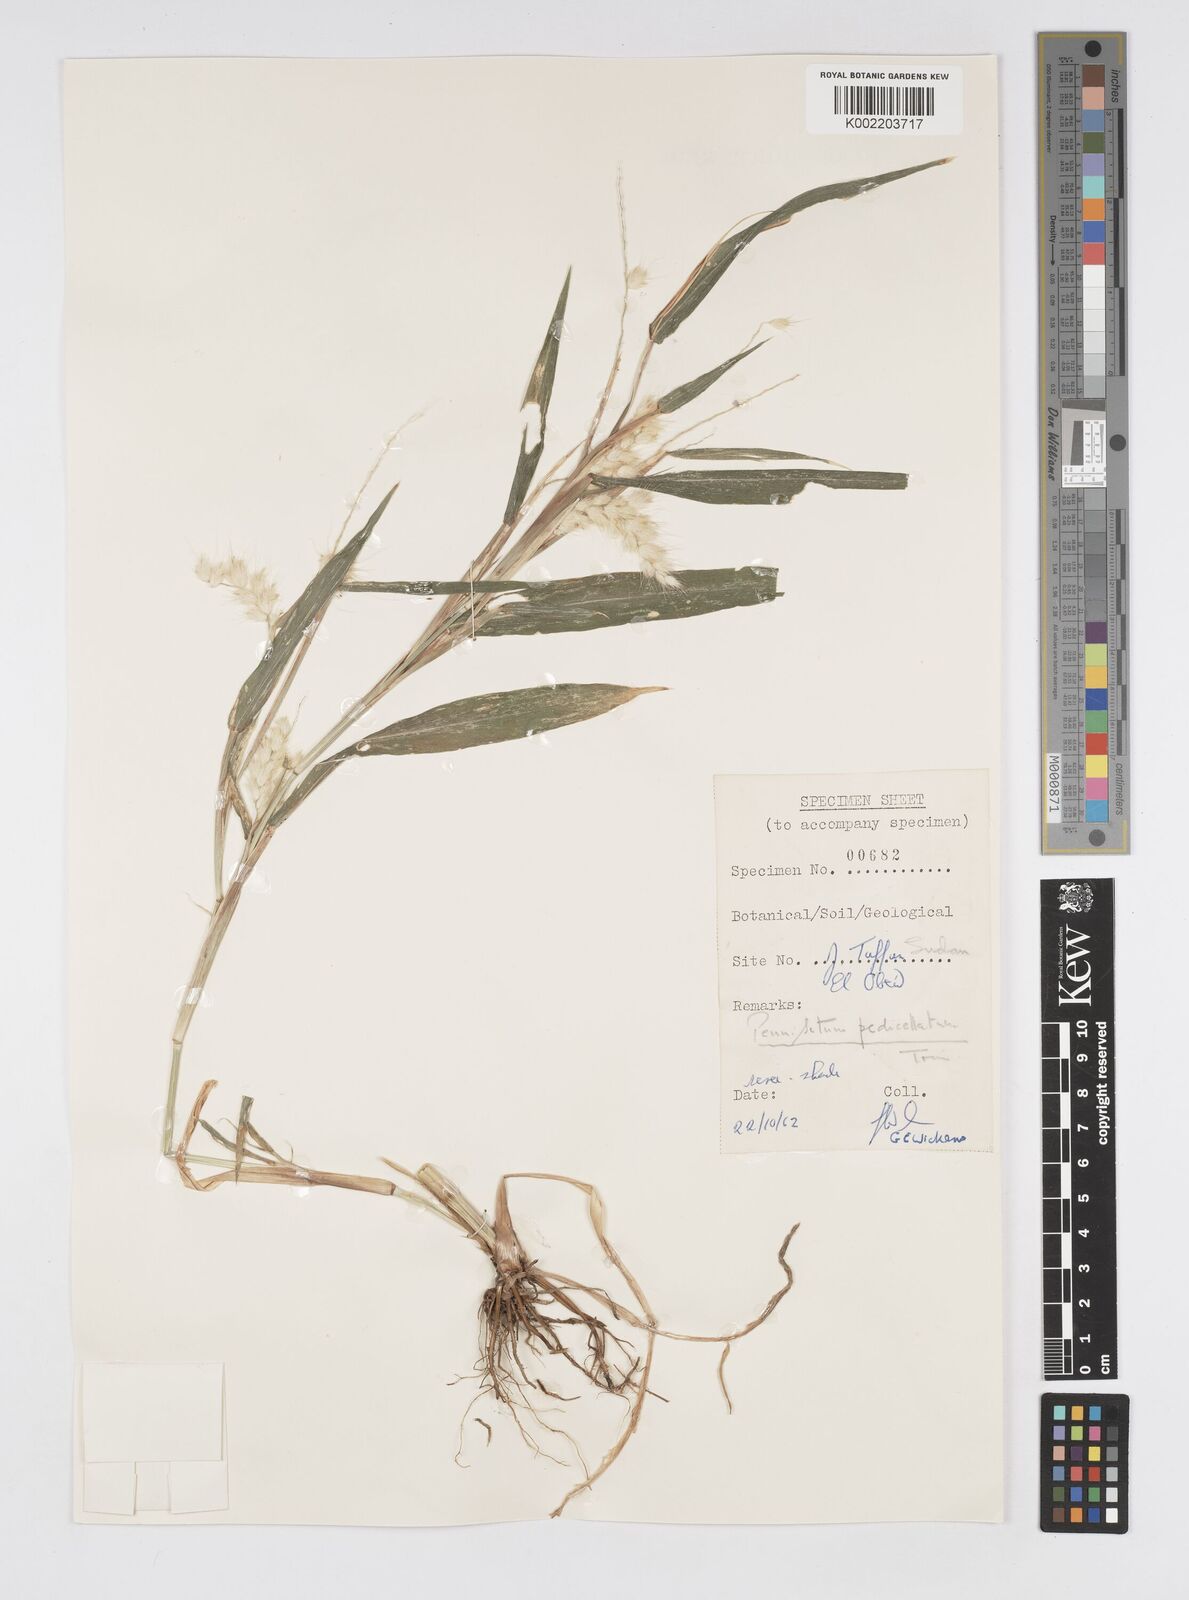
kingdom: Plantae
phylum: Tracheophyta
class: Liliopsida
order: Poales
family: Poaceae
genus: Cenchrus
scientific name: Cenchrus pedicellatus
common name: Hairy fountain grass
